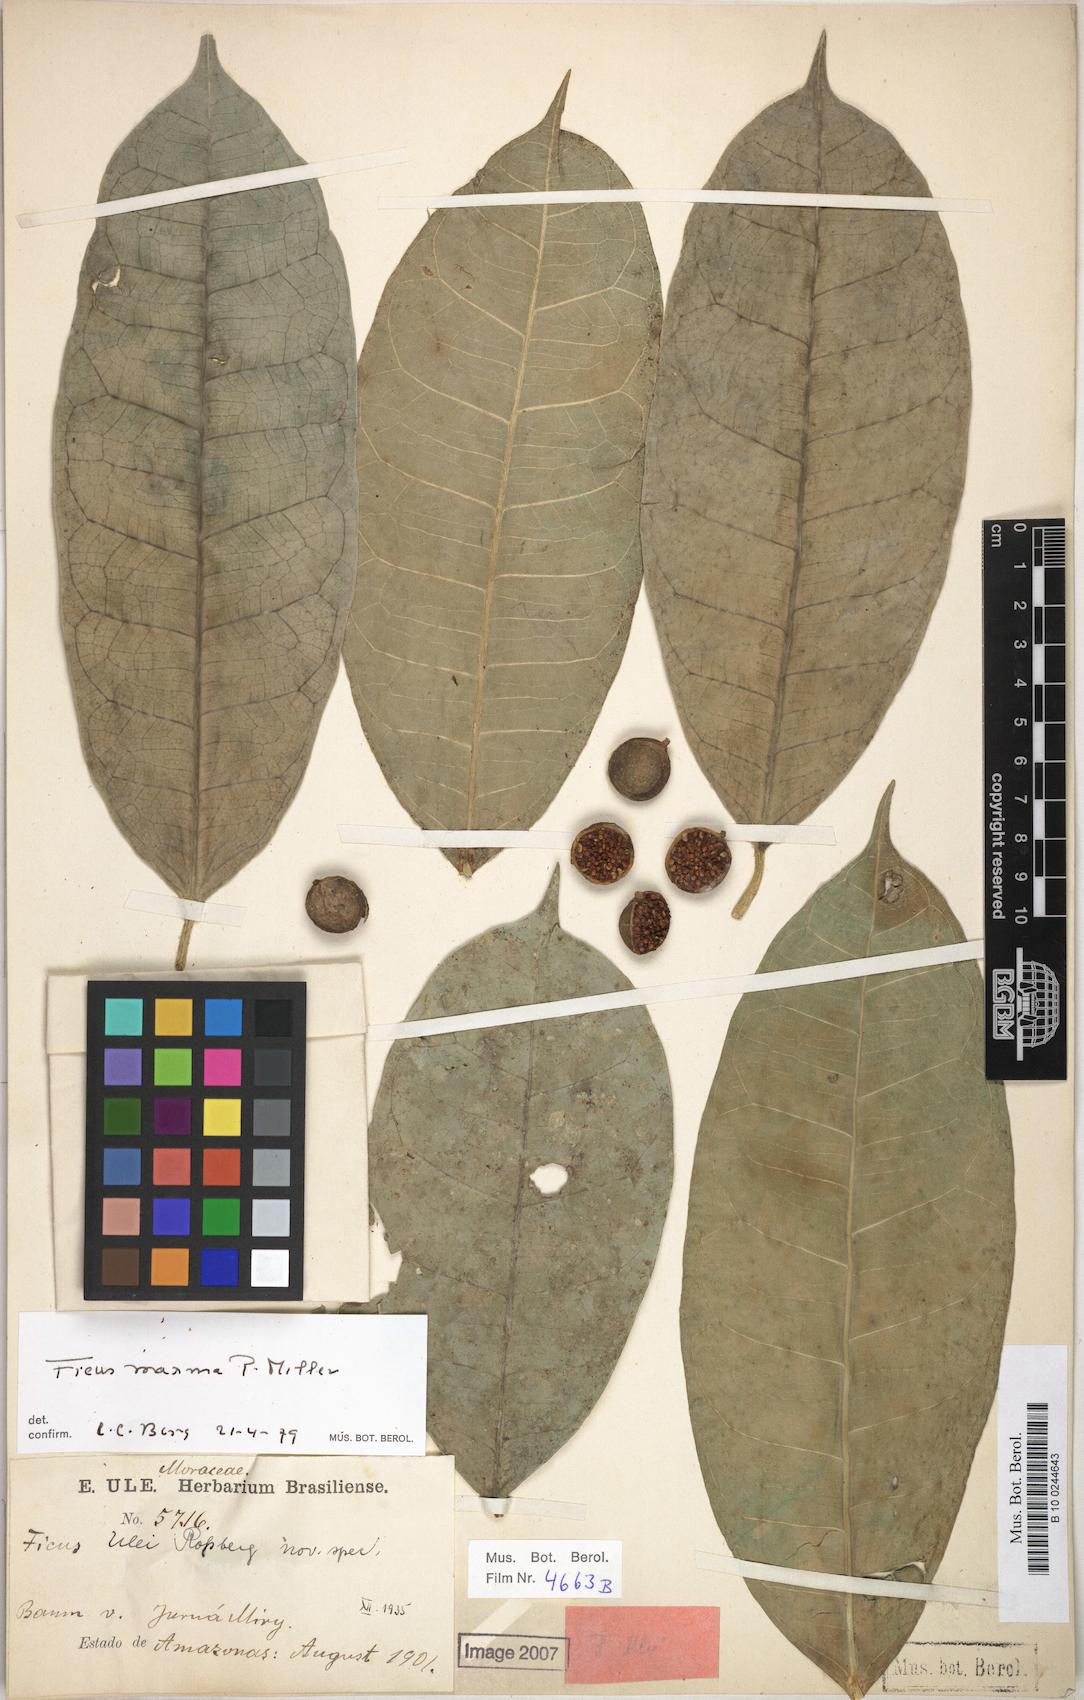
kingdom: Plantae
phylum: Tracheophyta
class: Magnoliopsida
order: Rosales
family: Moraceae
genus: Ficus
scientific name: Ficus maxima
